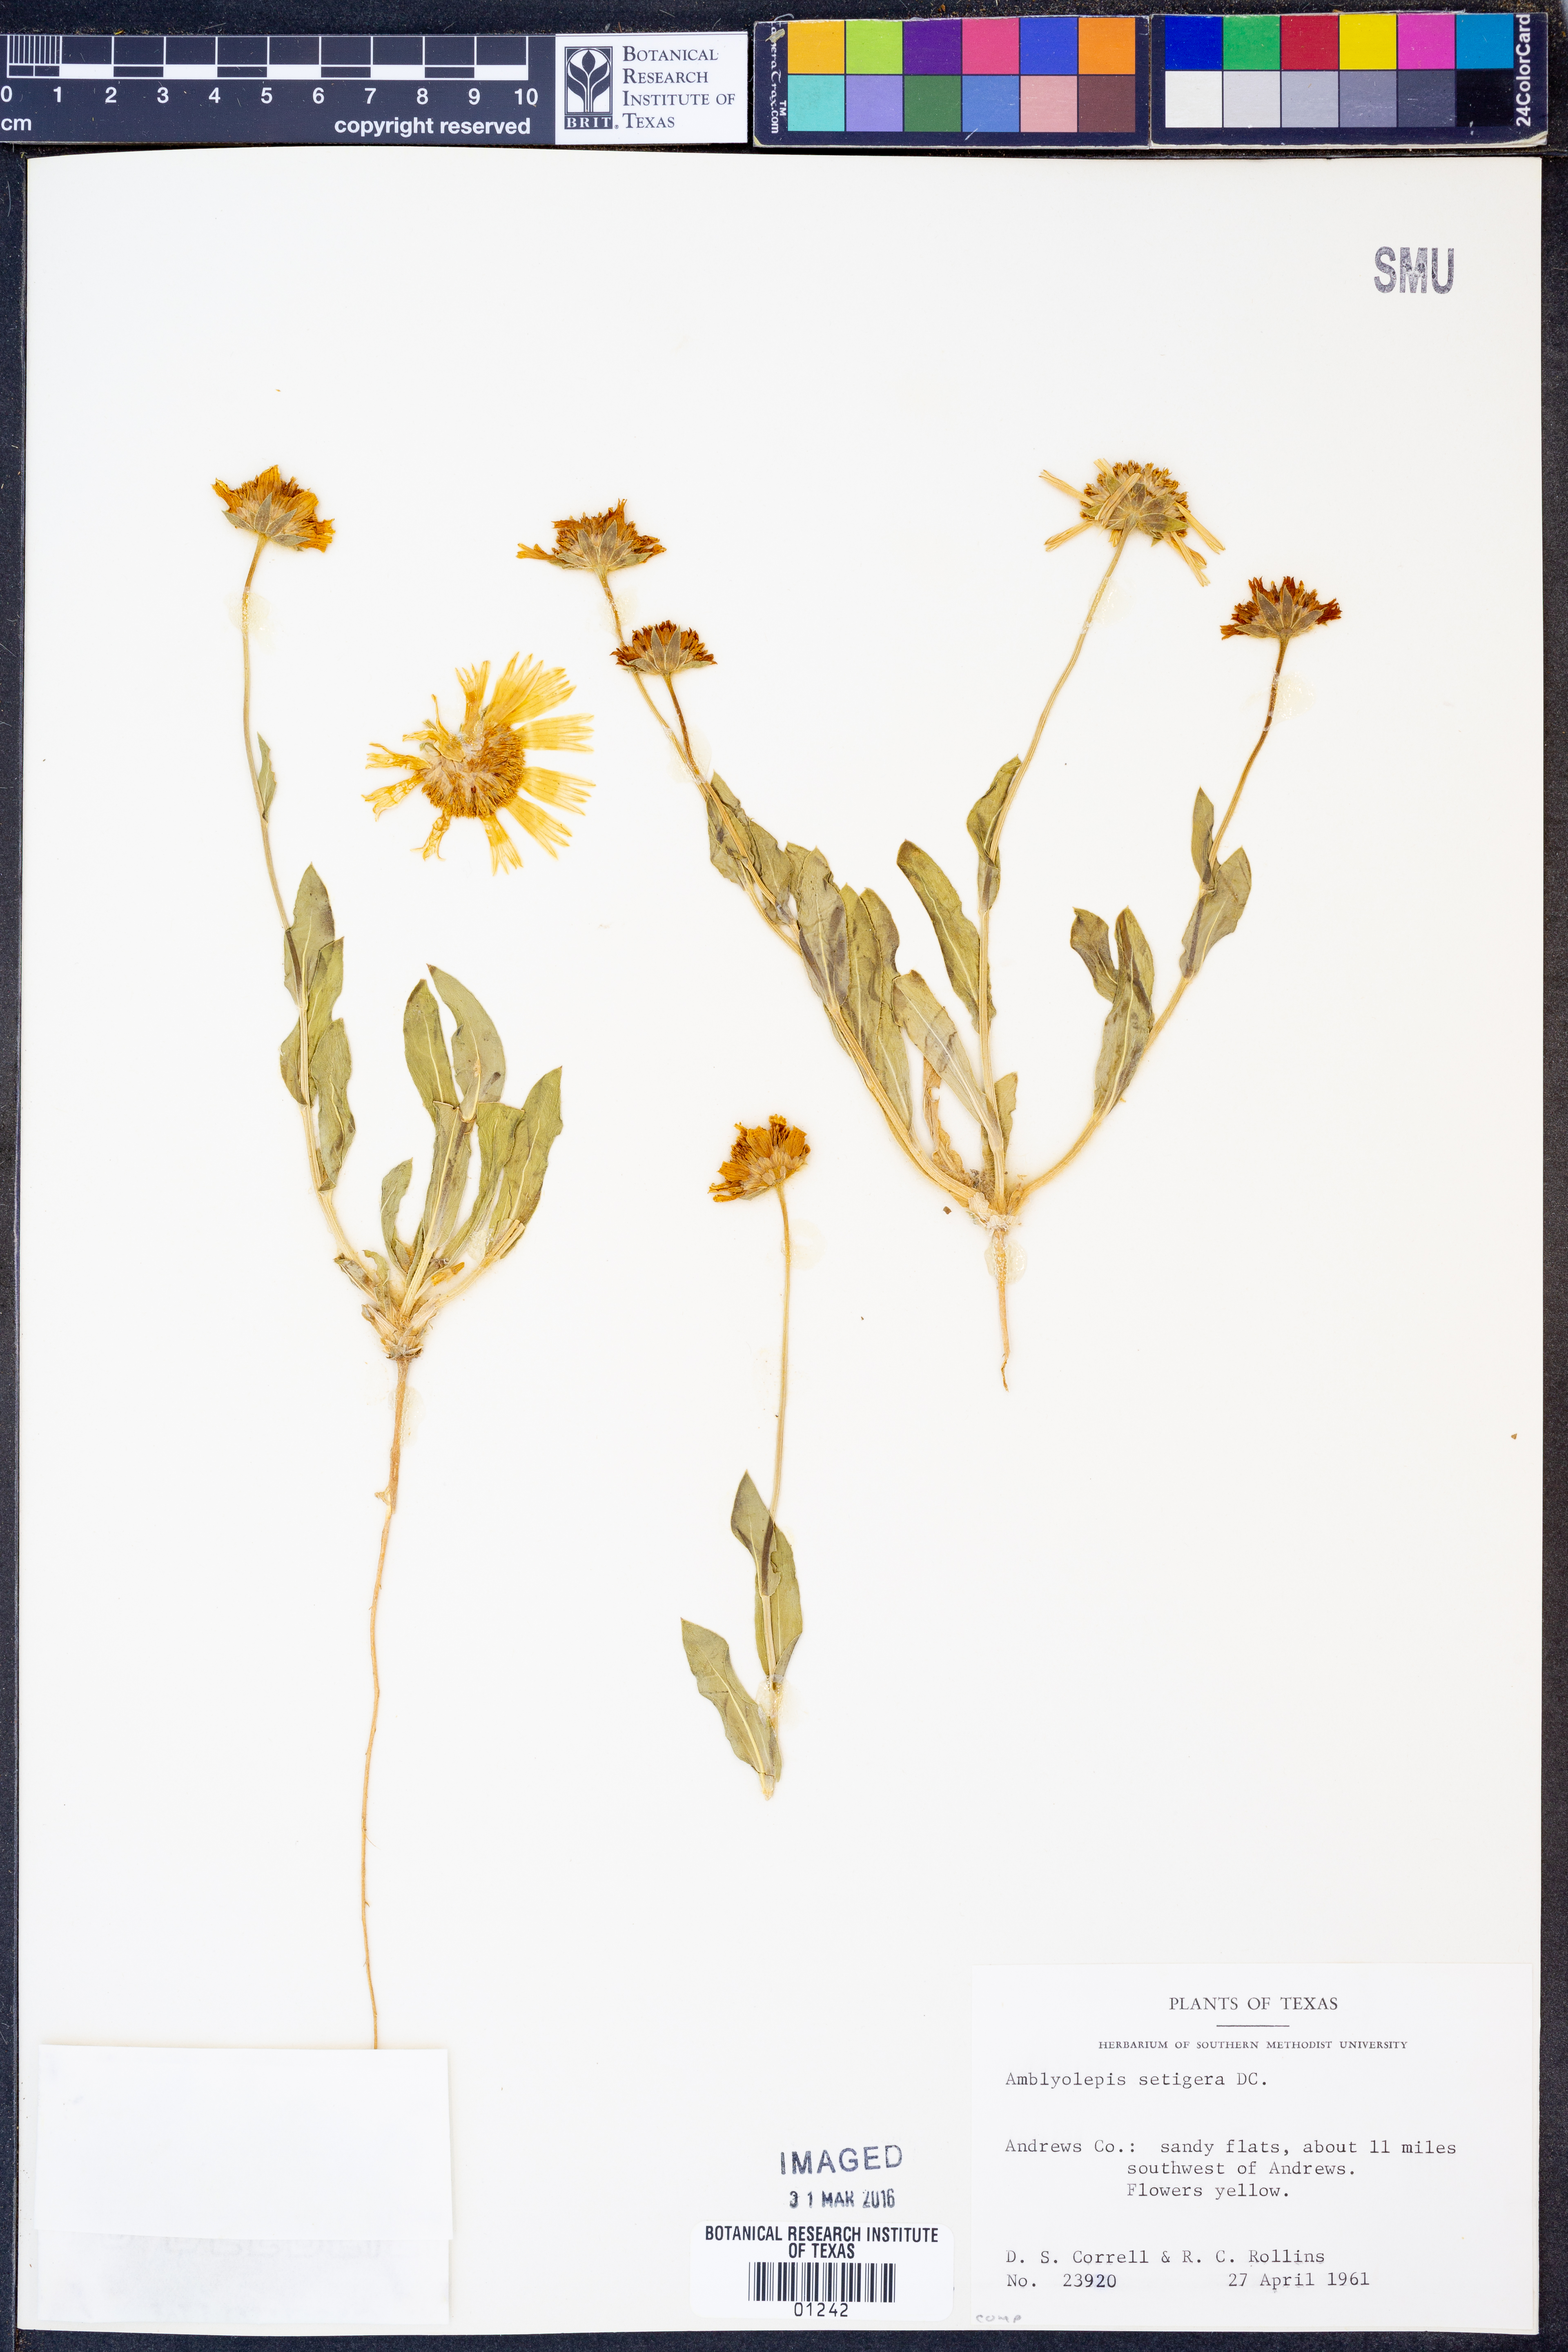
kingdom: Plantae
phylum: Tracheophyta
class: Magnoliopsida
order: Asterales
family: Asteraceae
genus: Amblyolepis
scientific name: Amblyolepis setigera
